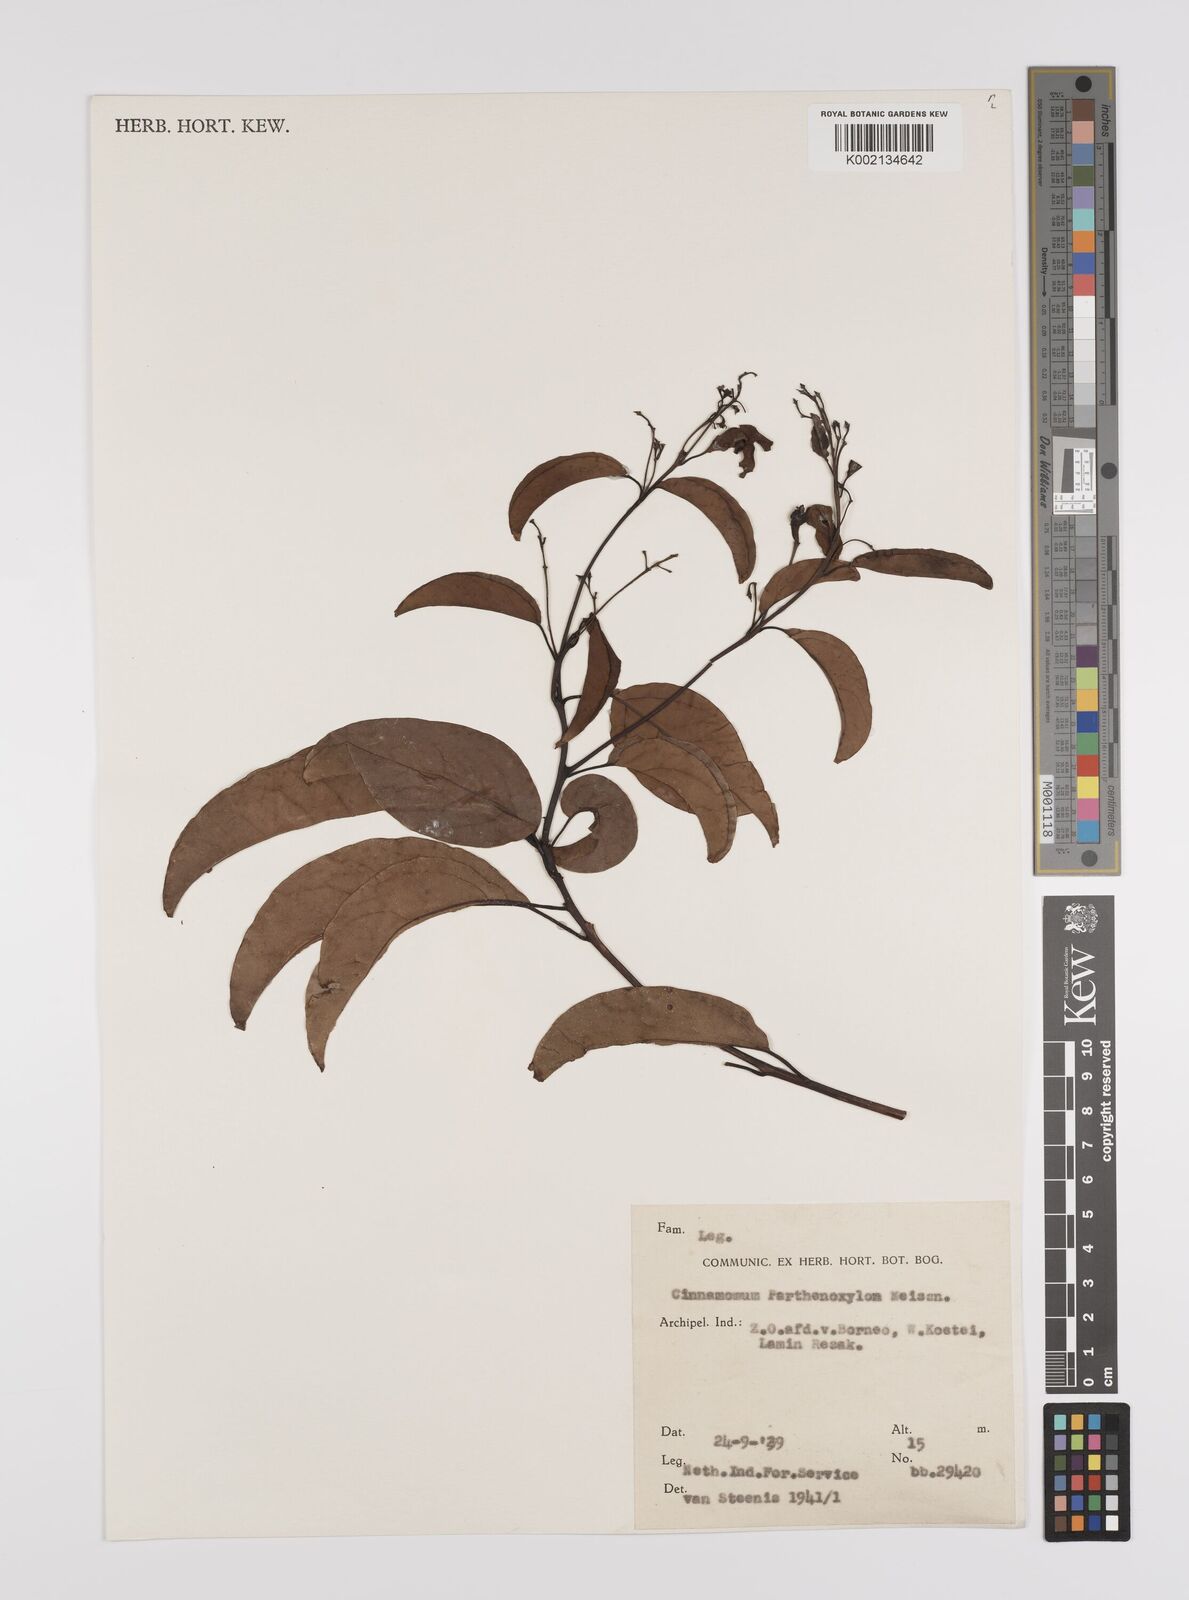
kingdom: Plantae
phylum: Tracheophyta
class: Magnoliopsida
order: Laurales
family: Lauraceae
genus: Cinnamomum
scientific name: Cinnamomum parthenoxylon
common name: Martaban camphor wood
